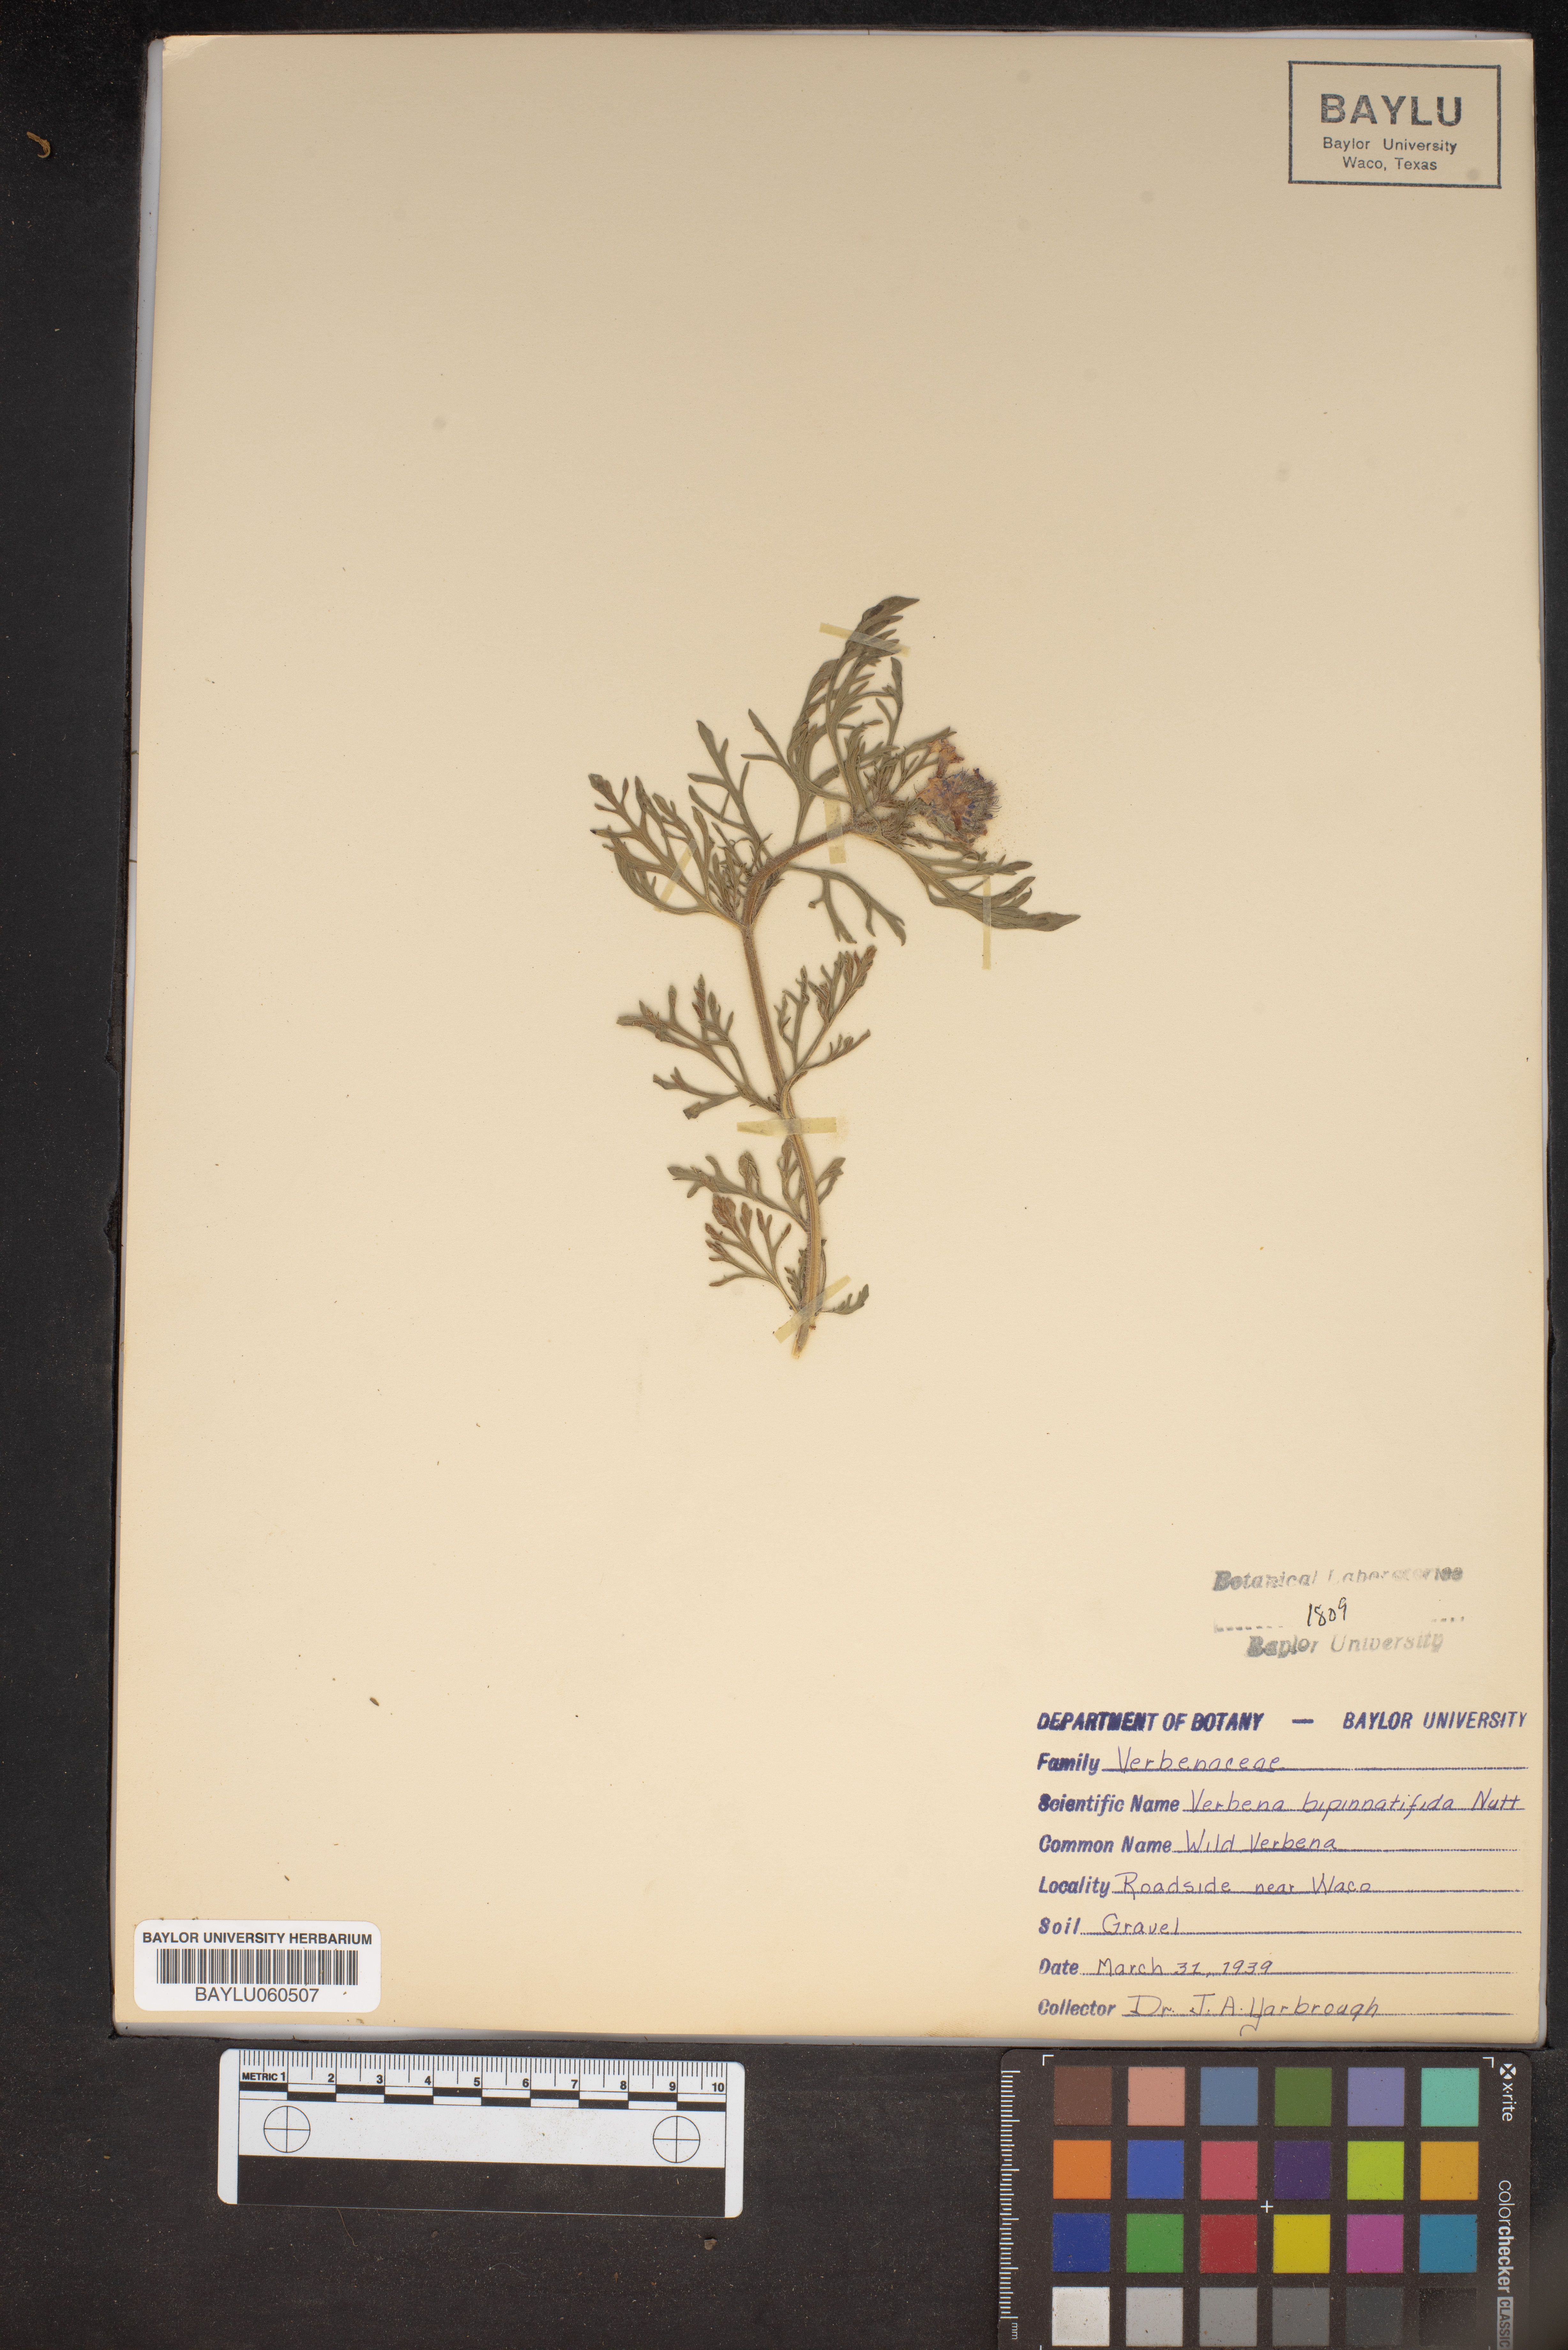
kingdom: Plantae
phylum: Tracheophyta
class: Magnoliopsida
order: Lamiales
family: Verbenaceae
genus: Verbena
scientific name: Verbena bipinnatifida
